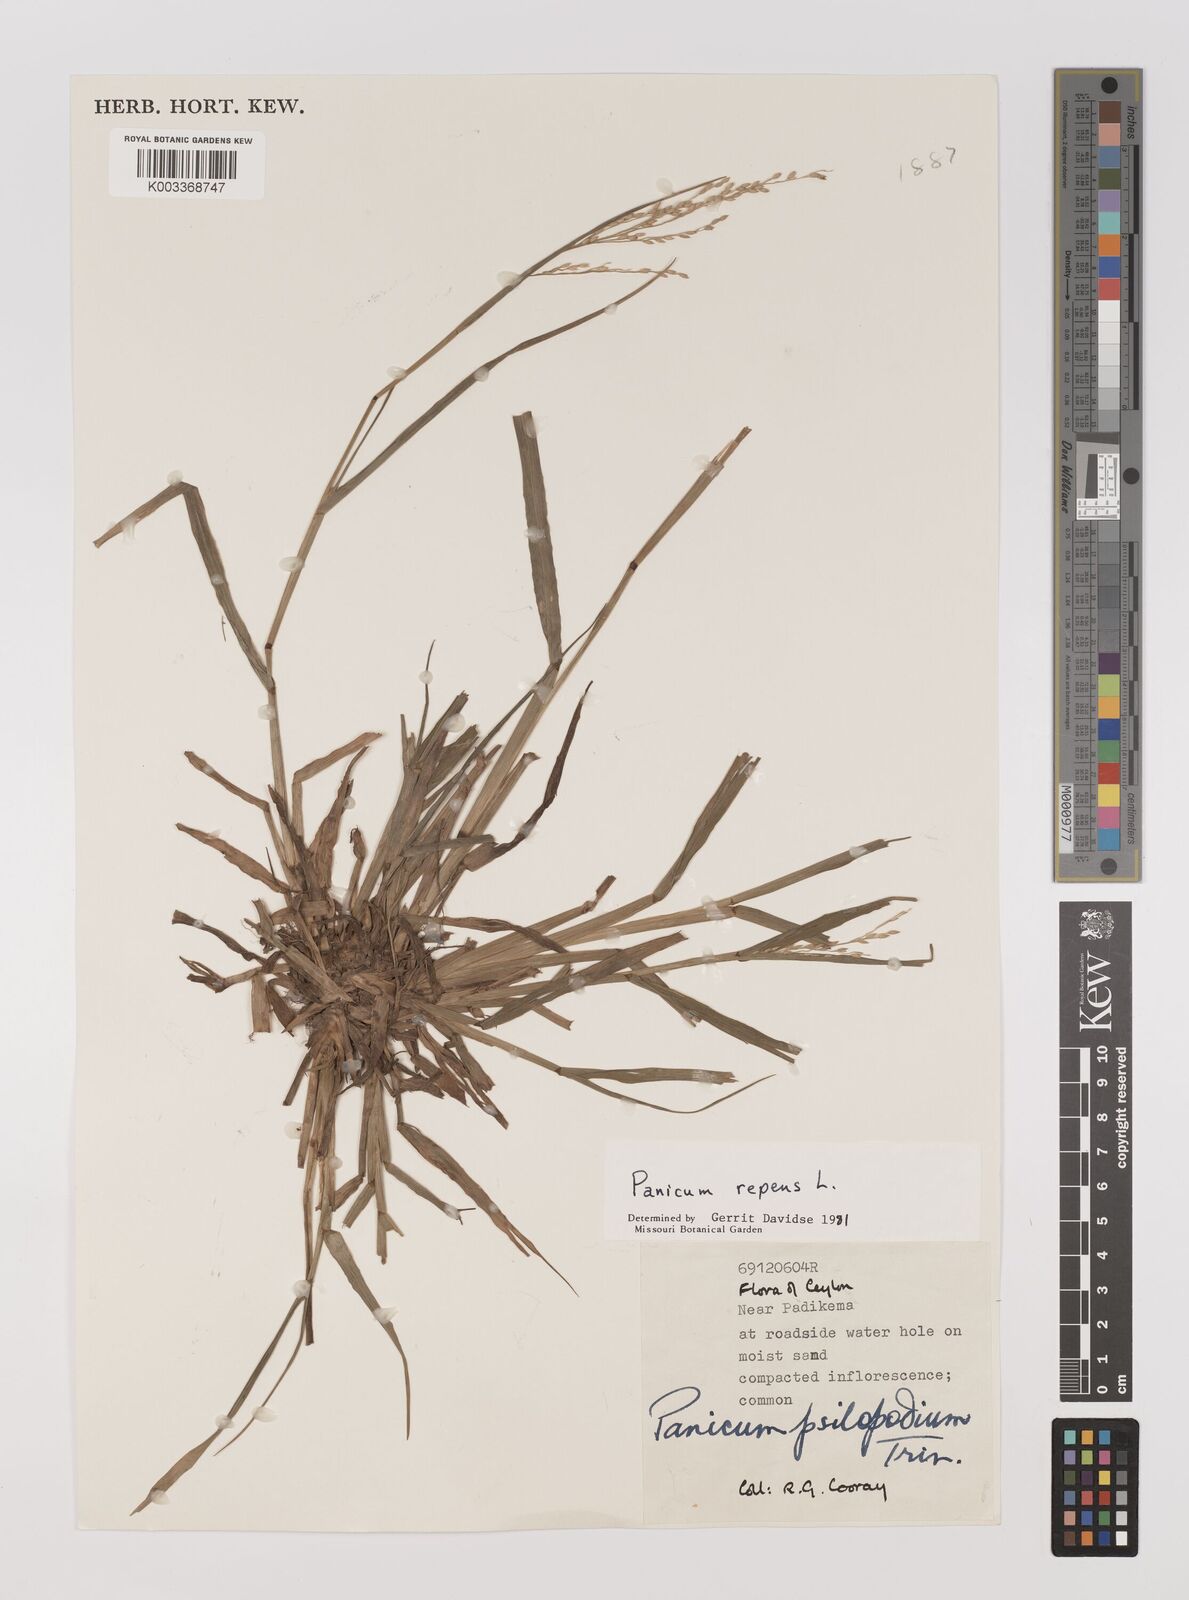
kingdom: Plantae
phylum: Tracheophyta
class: Liliopsida
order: Poales
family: Poaceae
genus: Panicum
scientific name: Panicum repens
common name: Torpedo grass
